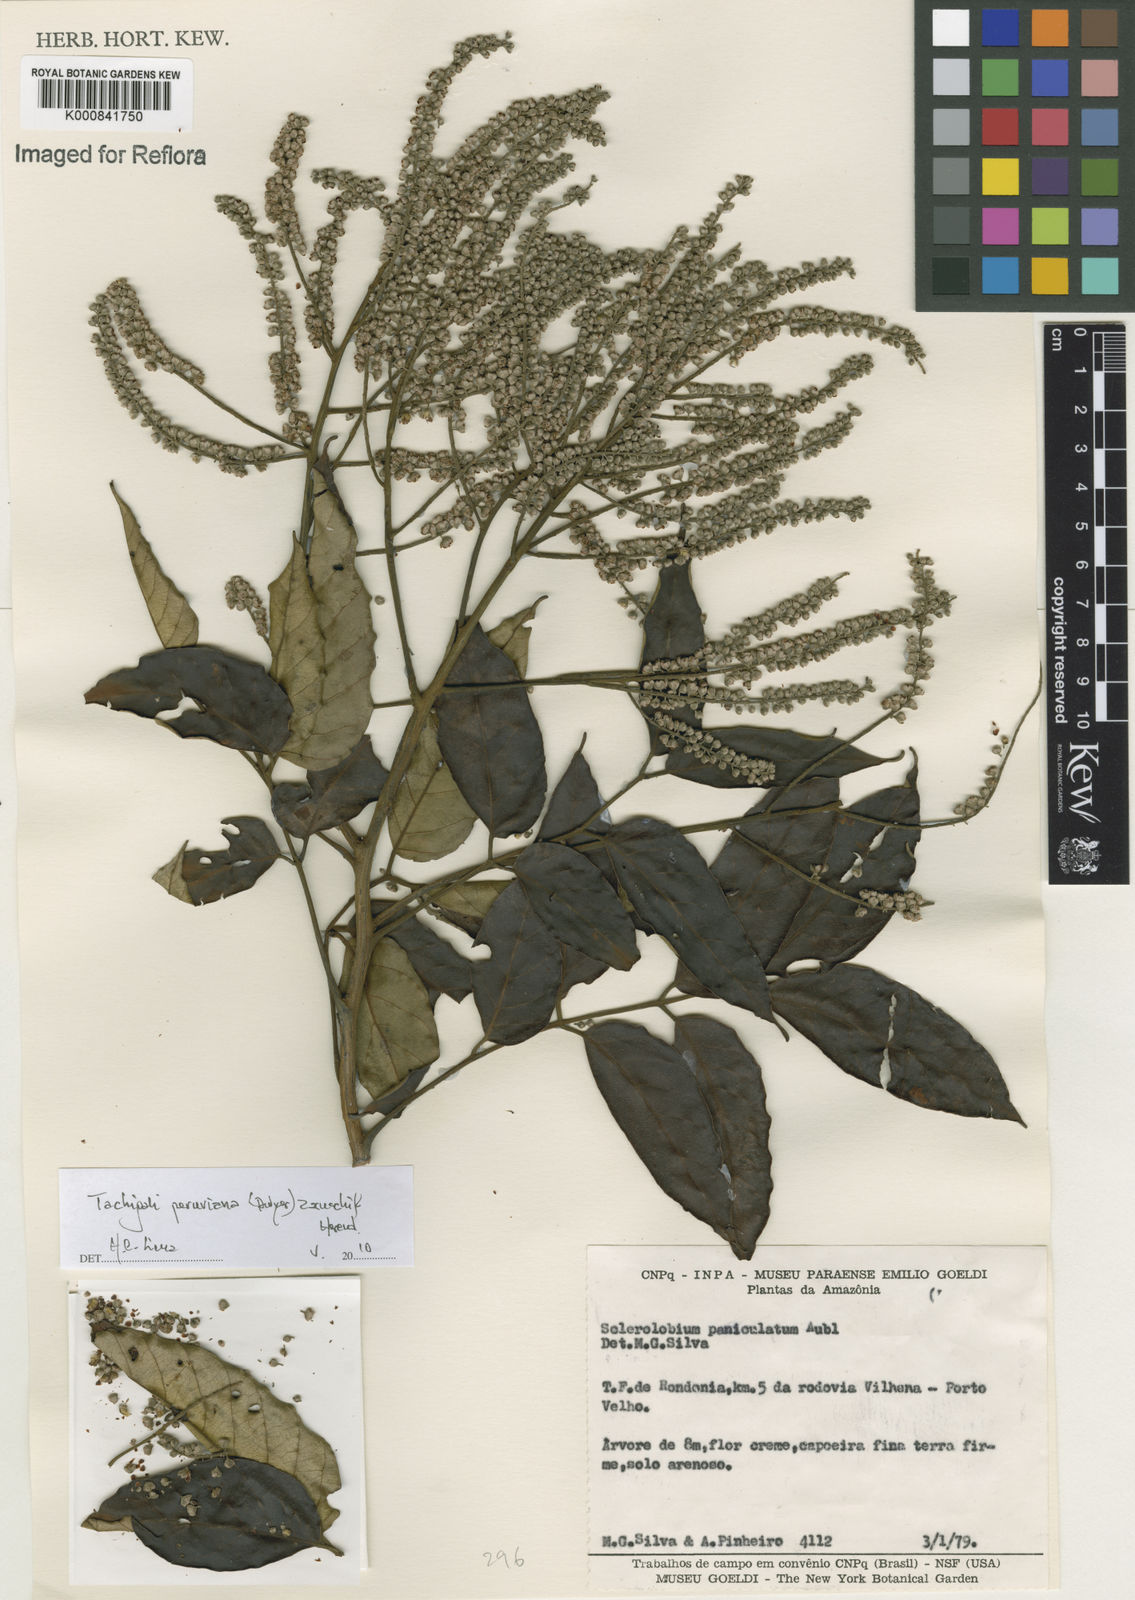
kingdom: Plantae
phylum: Tracheophyta
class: Magnoliopsida
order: Fabales
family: Fabaceae
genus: Tachigali
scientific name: Tachigali peruviana
